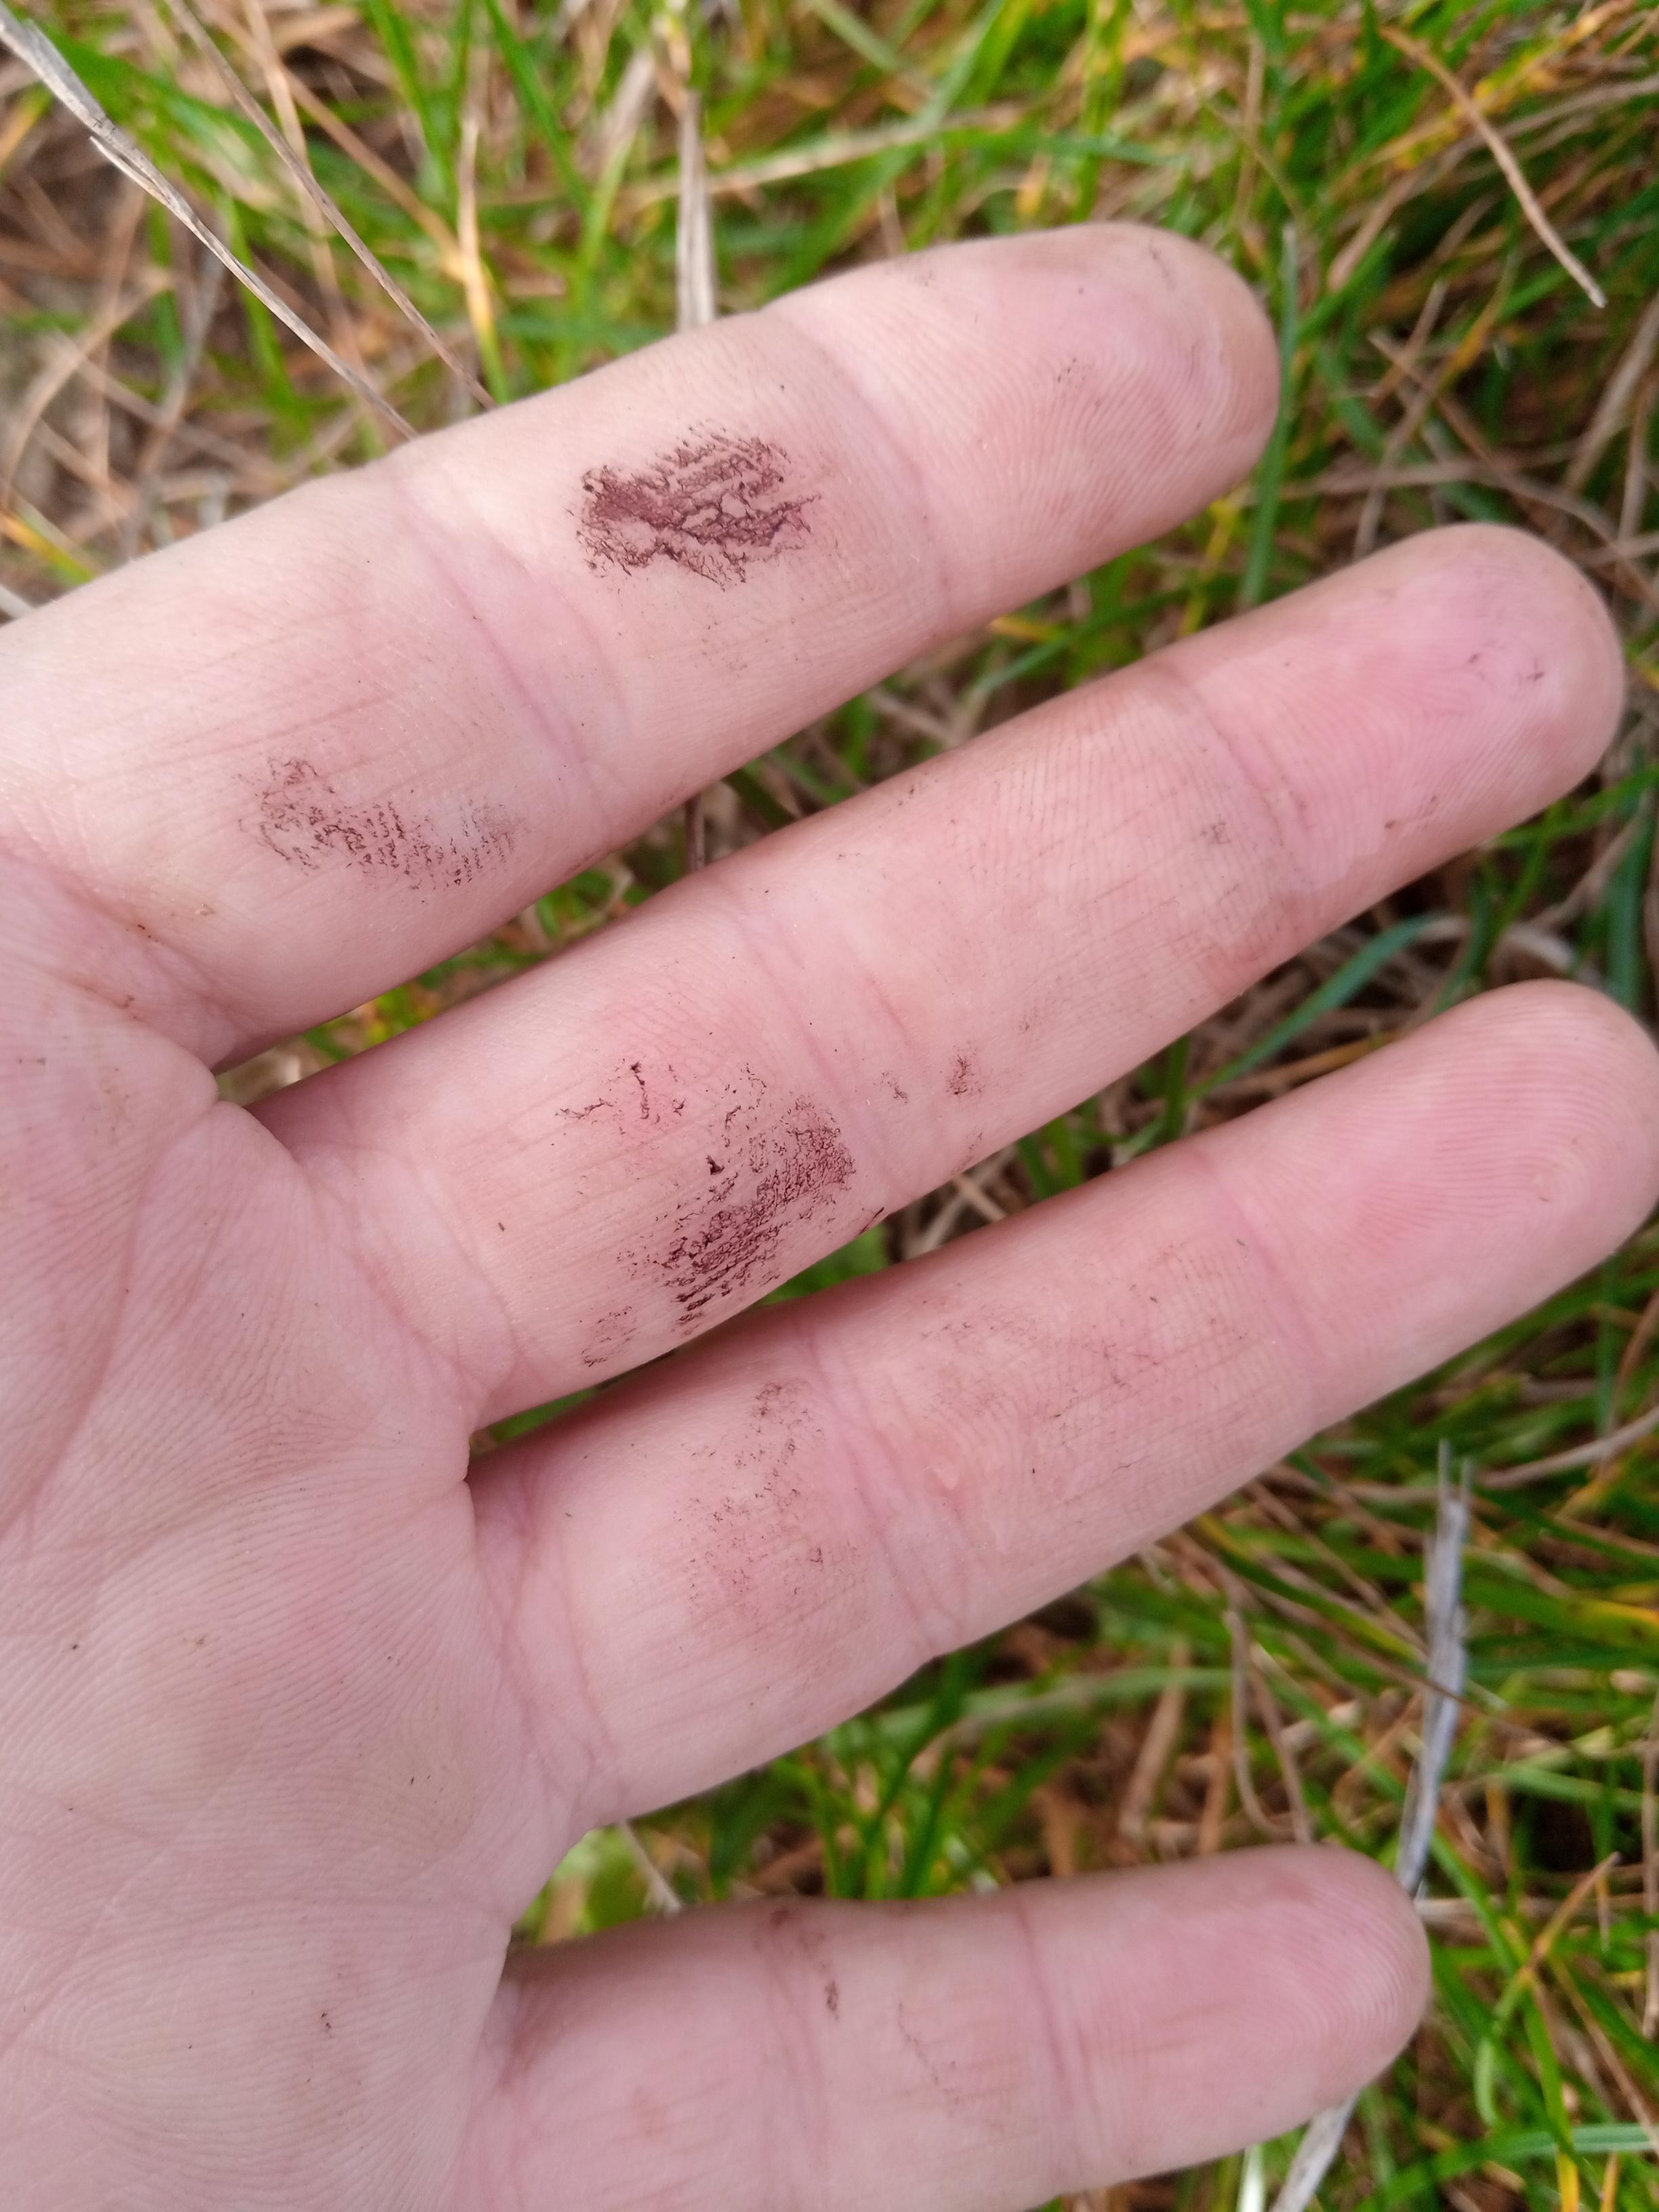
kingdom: Fungi
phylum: Basidiomycota
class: Agaricomycetes
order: Agaricales
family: Strophariaceae
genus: Protostropharia
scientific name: Protostropharia
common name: bredblad
